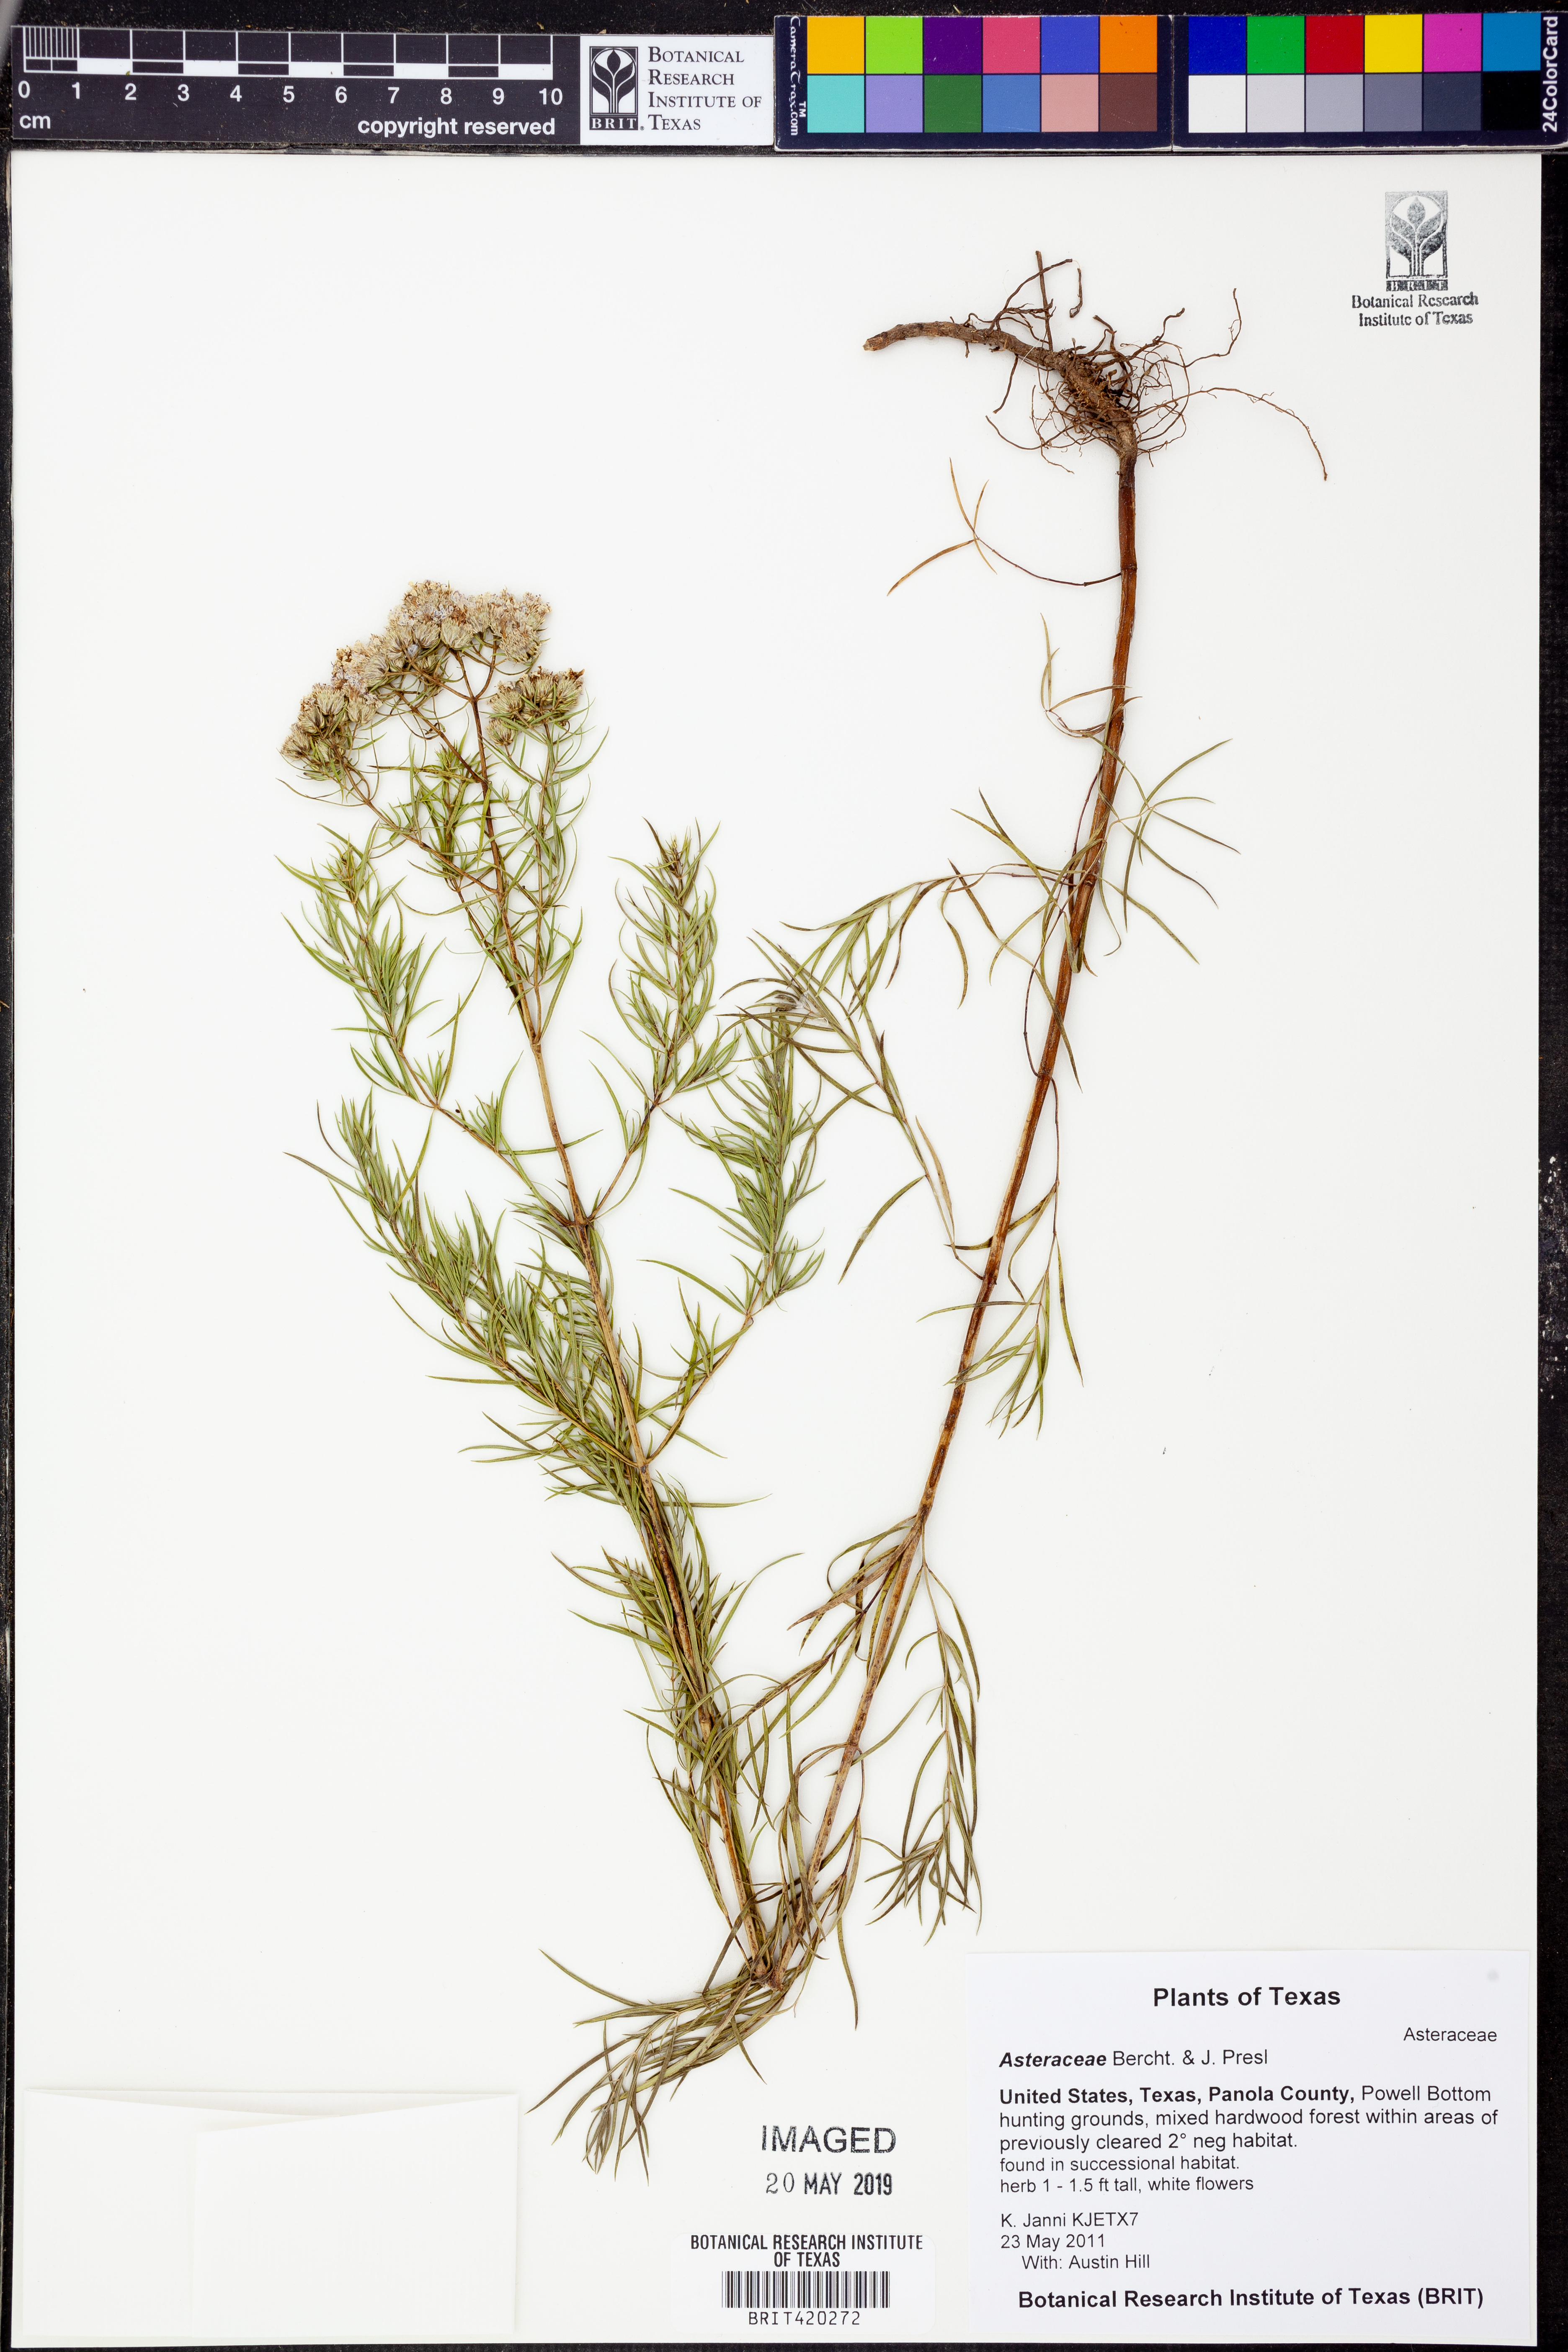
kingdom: Plantae
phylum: Tracheophyta
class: Magnoliopsida
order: Asterales
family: Asteraceae
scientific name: Asteraceae
